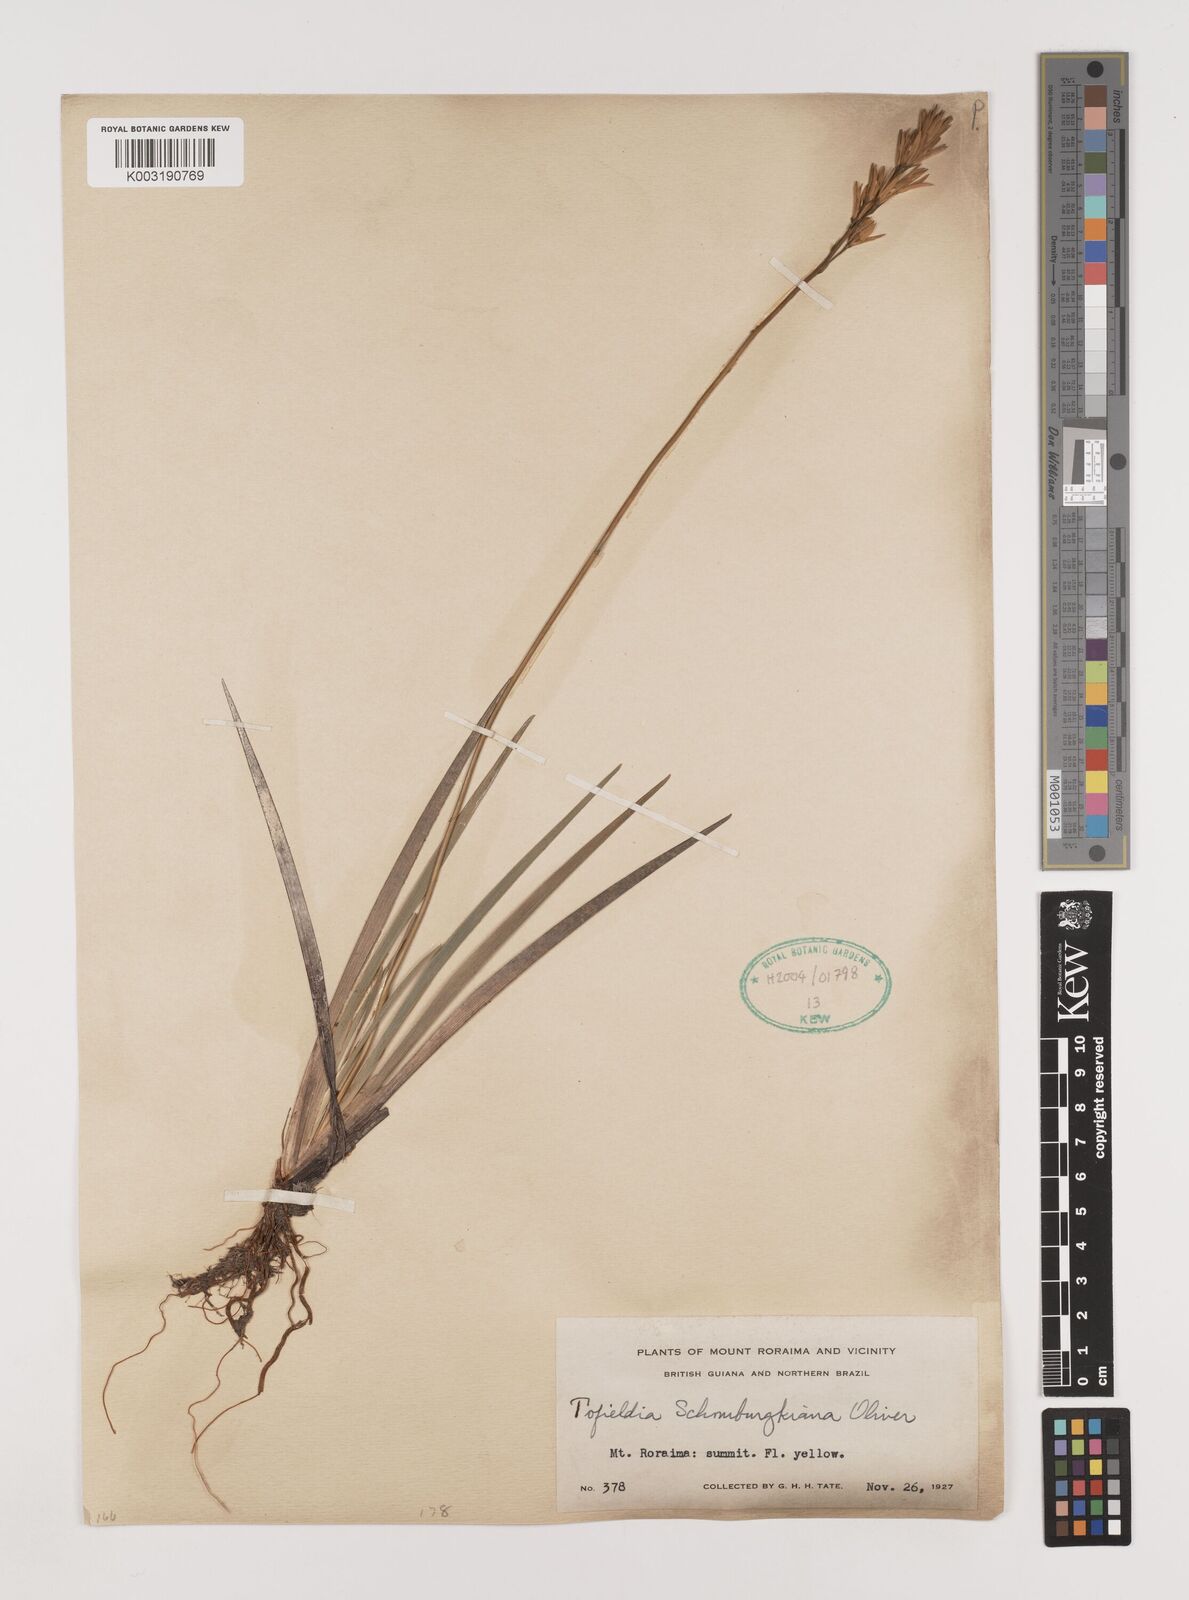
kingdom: Plantae
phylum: Tracheophyta
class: Liliopsida
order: Alismatales
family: Tofieldiaceae
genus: Harperocallis
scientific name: Harperocallis schomburgkiana
